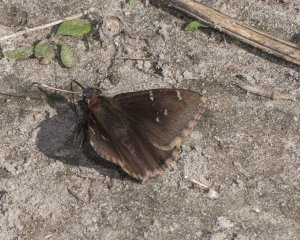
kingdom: Animalia
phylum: Arthropoda
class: Insecta
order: Lepidoptera
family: Hesperiidae
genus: Autochton
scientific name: Autochton
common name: Northern Cloudywing
